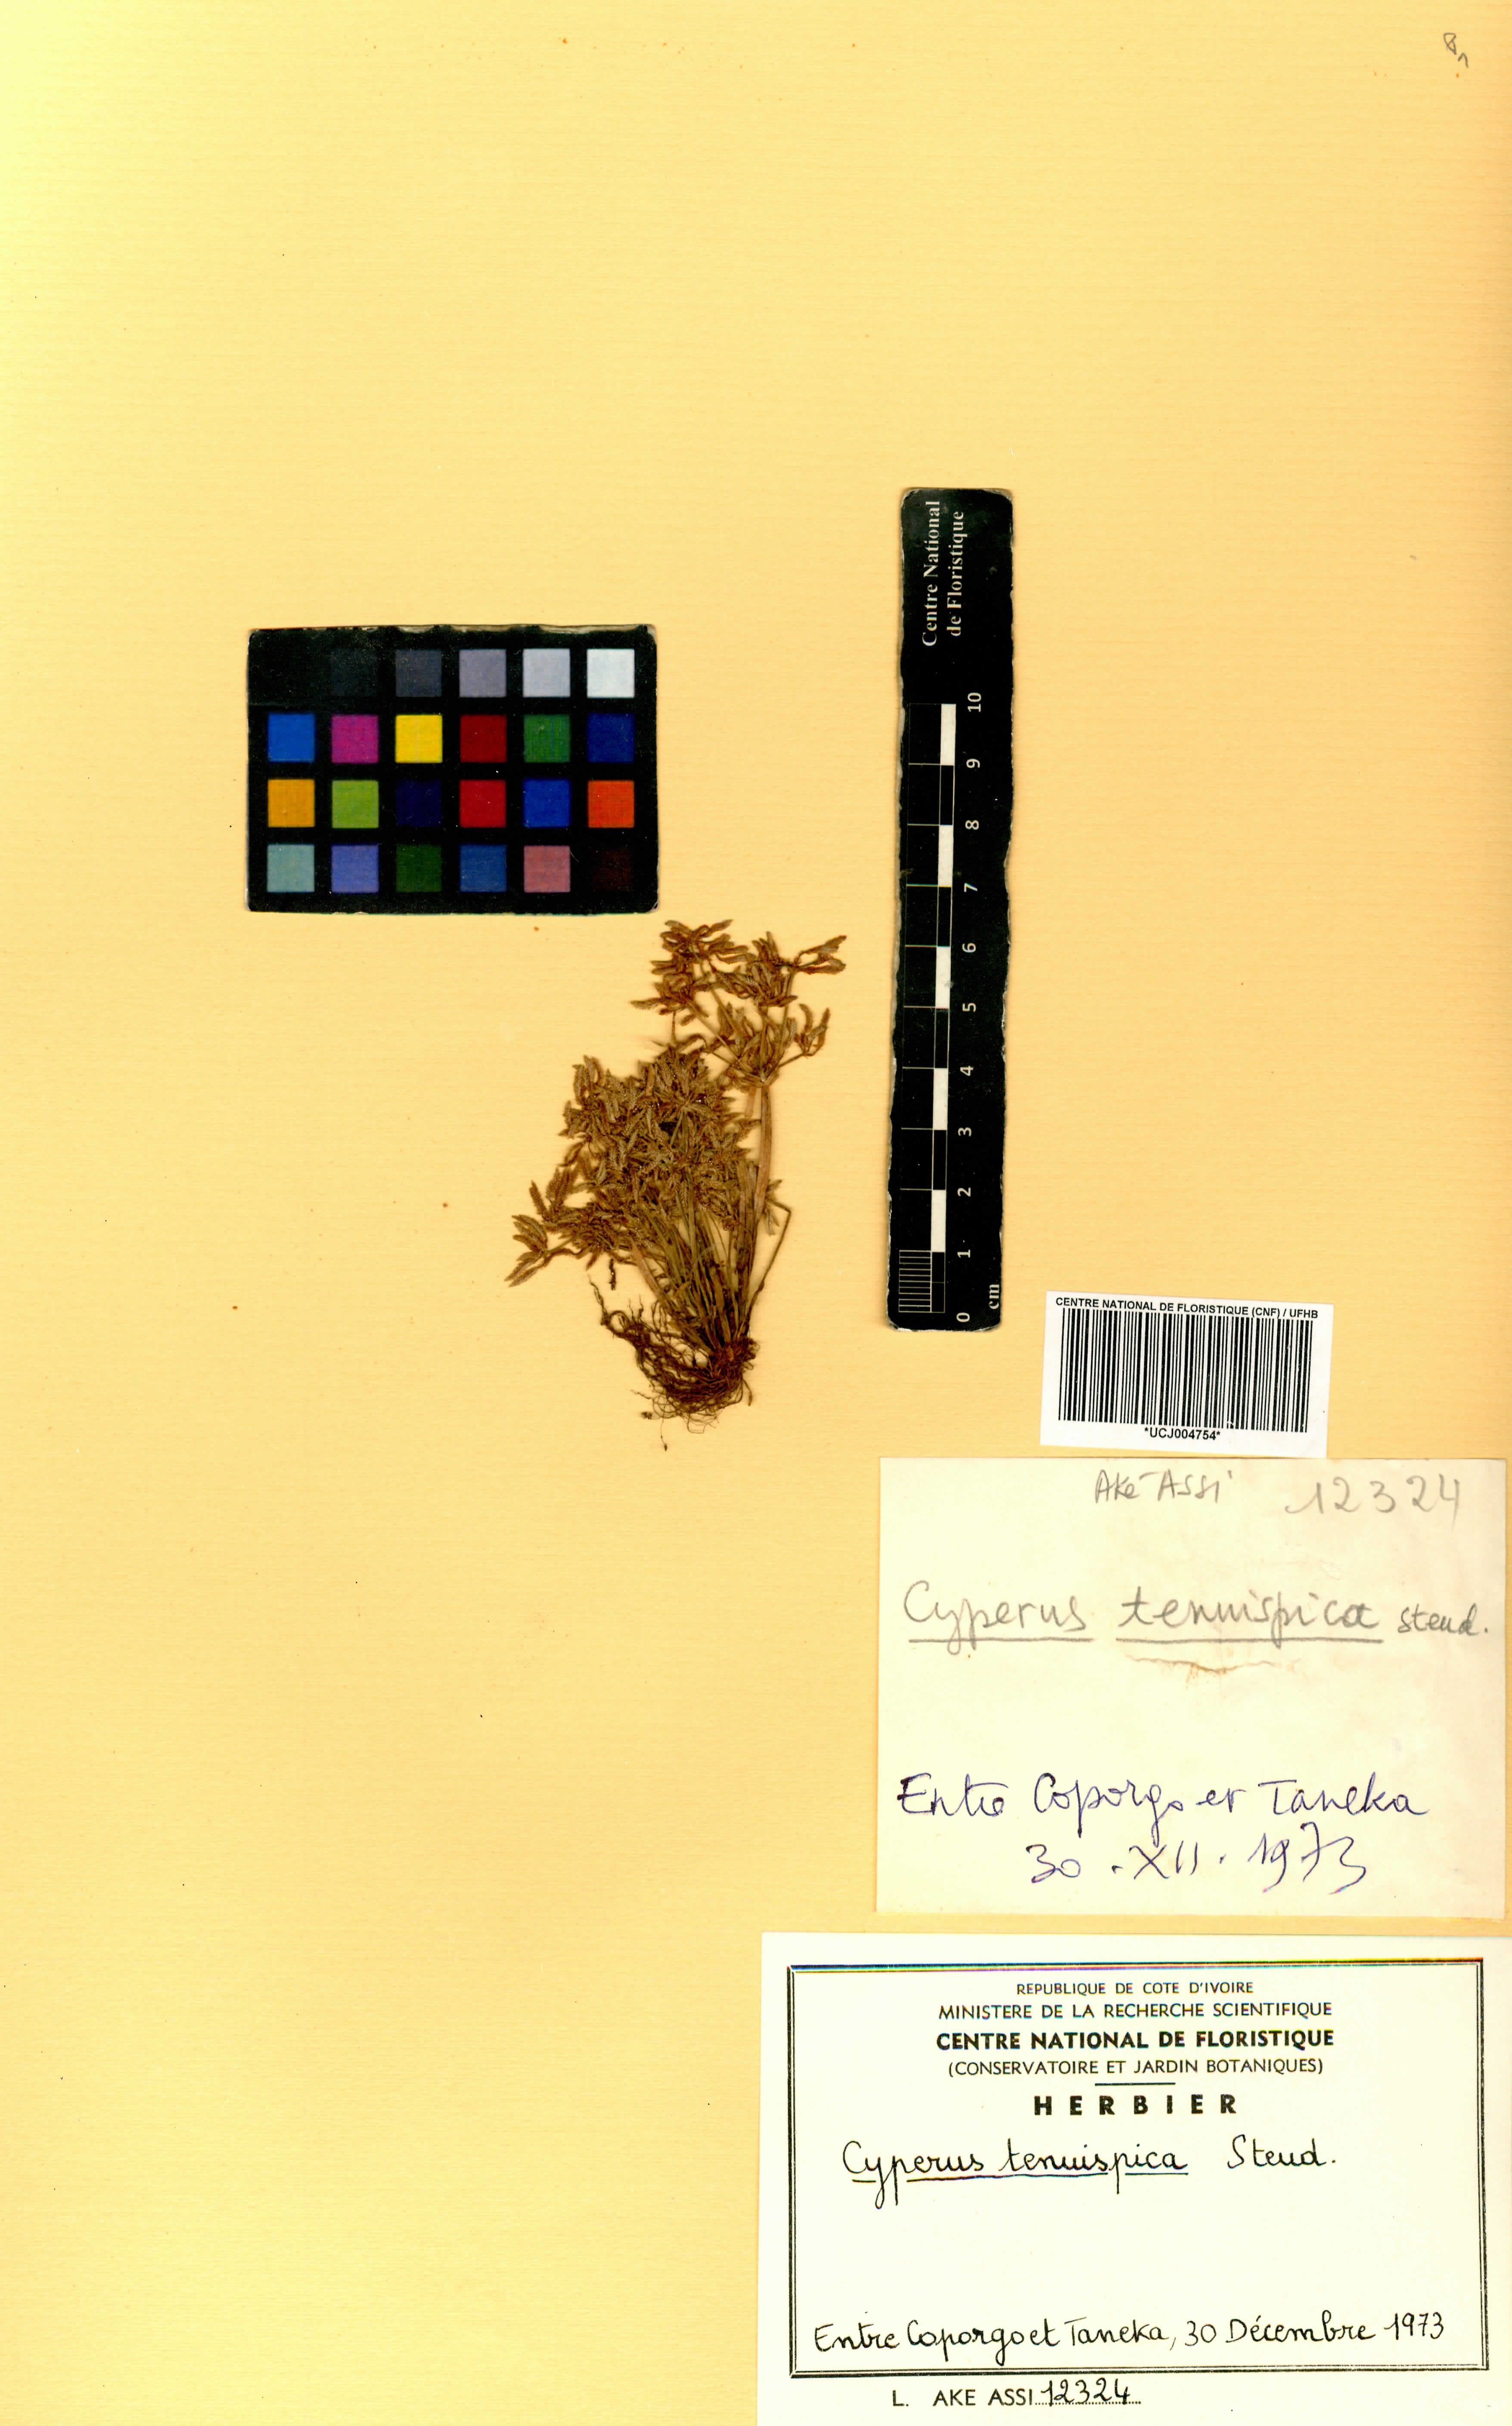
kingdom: Plantae
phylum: Tracheophyta
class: Liliopsida
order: Poales
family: Cyperaceae
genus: Cyperus
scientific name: Cyperus tenuispica
